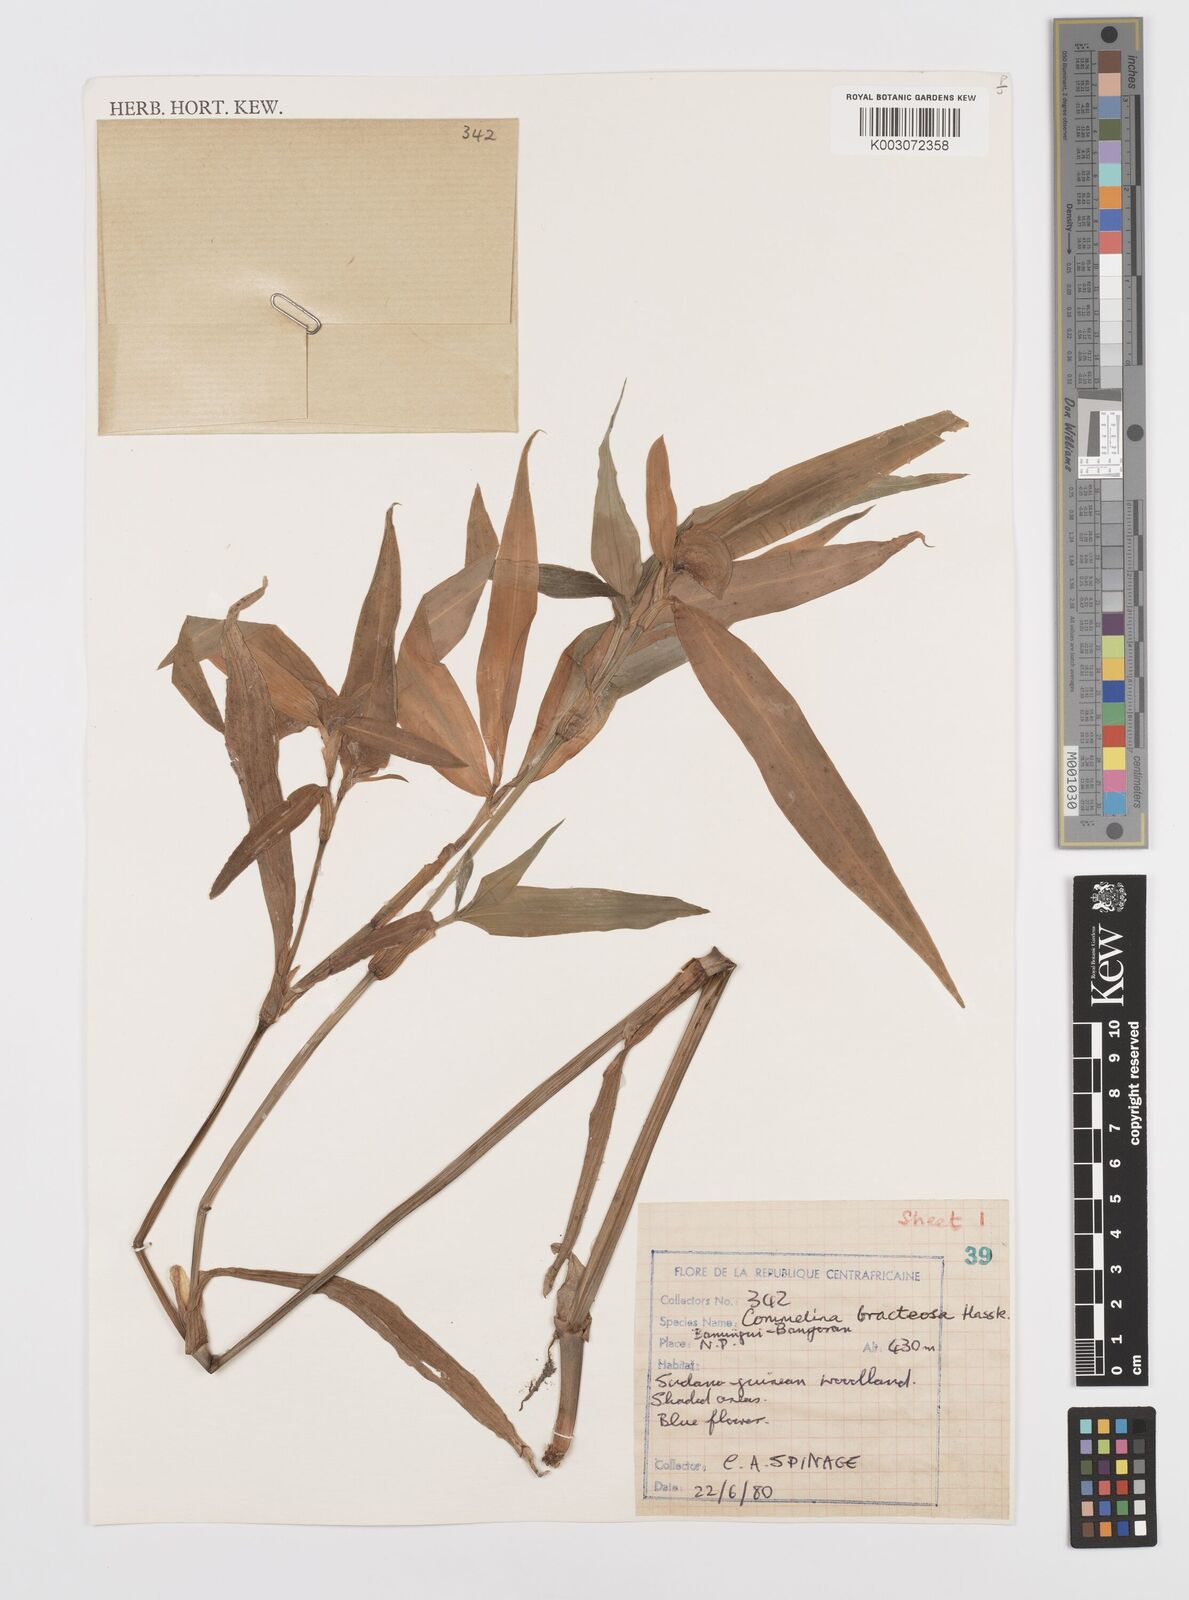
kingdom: Plantae
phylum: Tracheophyta
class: Liliopsida
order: Commelinales
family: Commelinaceae
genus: Commelina
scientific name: Commelina bracteosa
